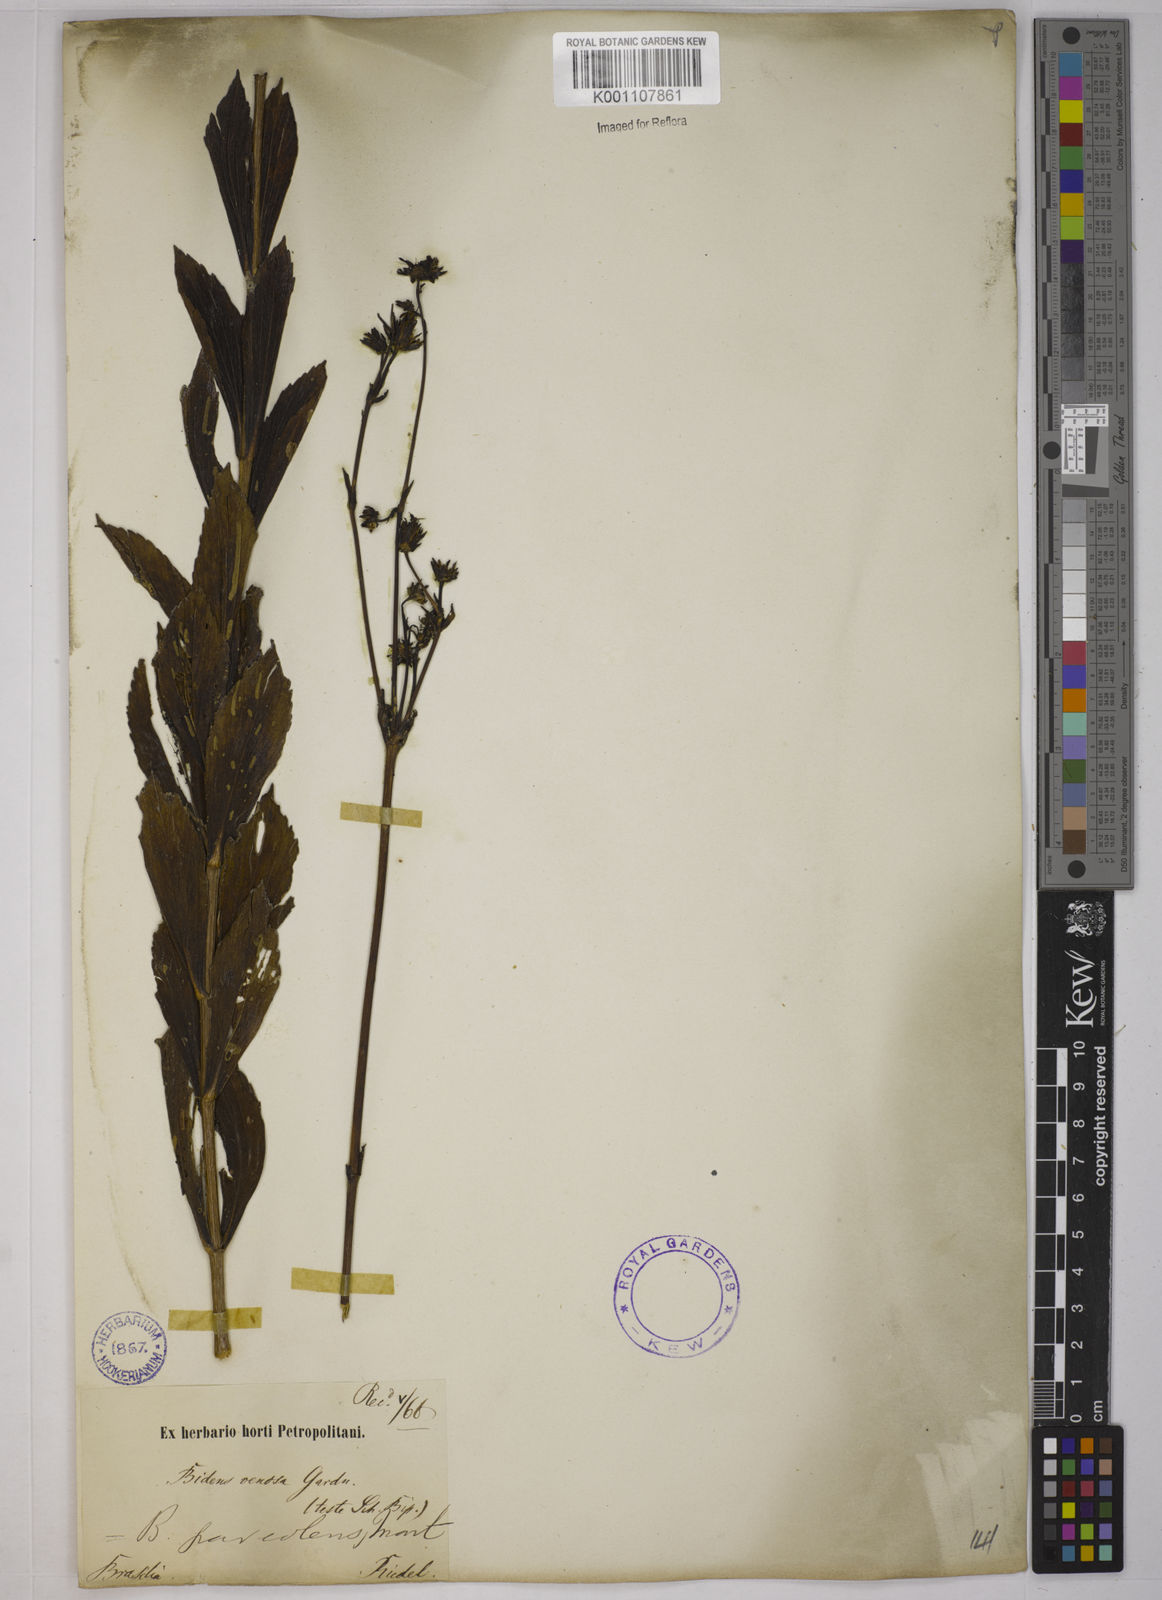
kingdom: Plantae
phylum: Tracheophyta
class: Magnoliopsida
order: Asterales
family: Asteraceae
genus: Bidens
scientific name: Bidens
